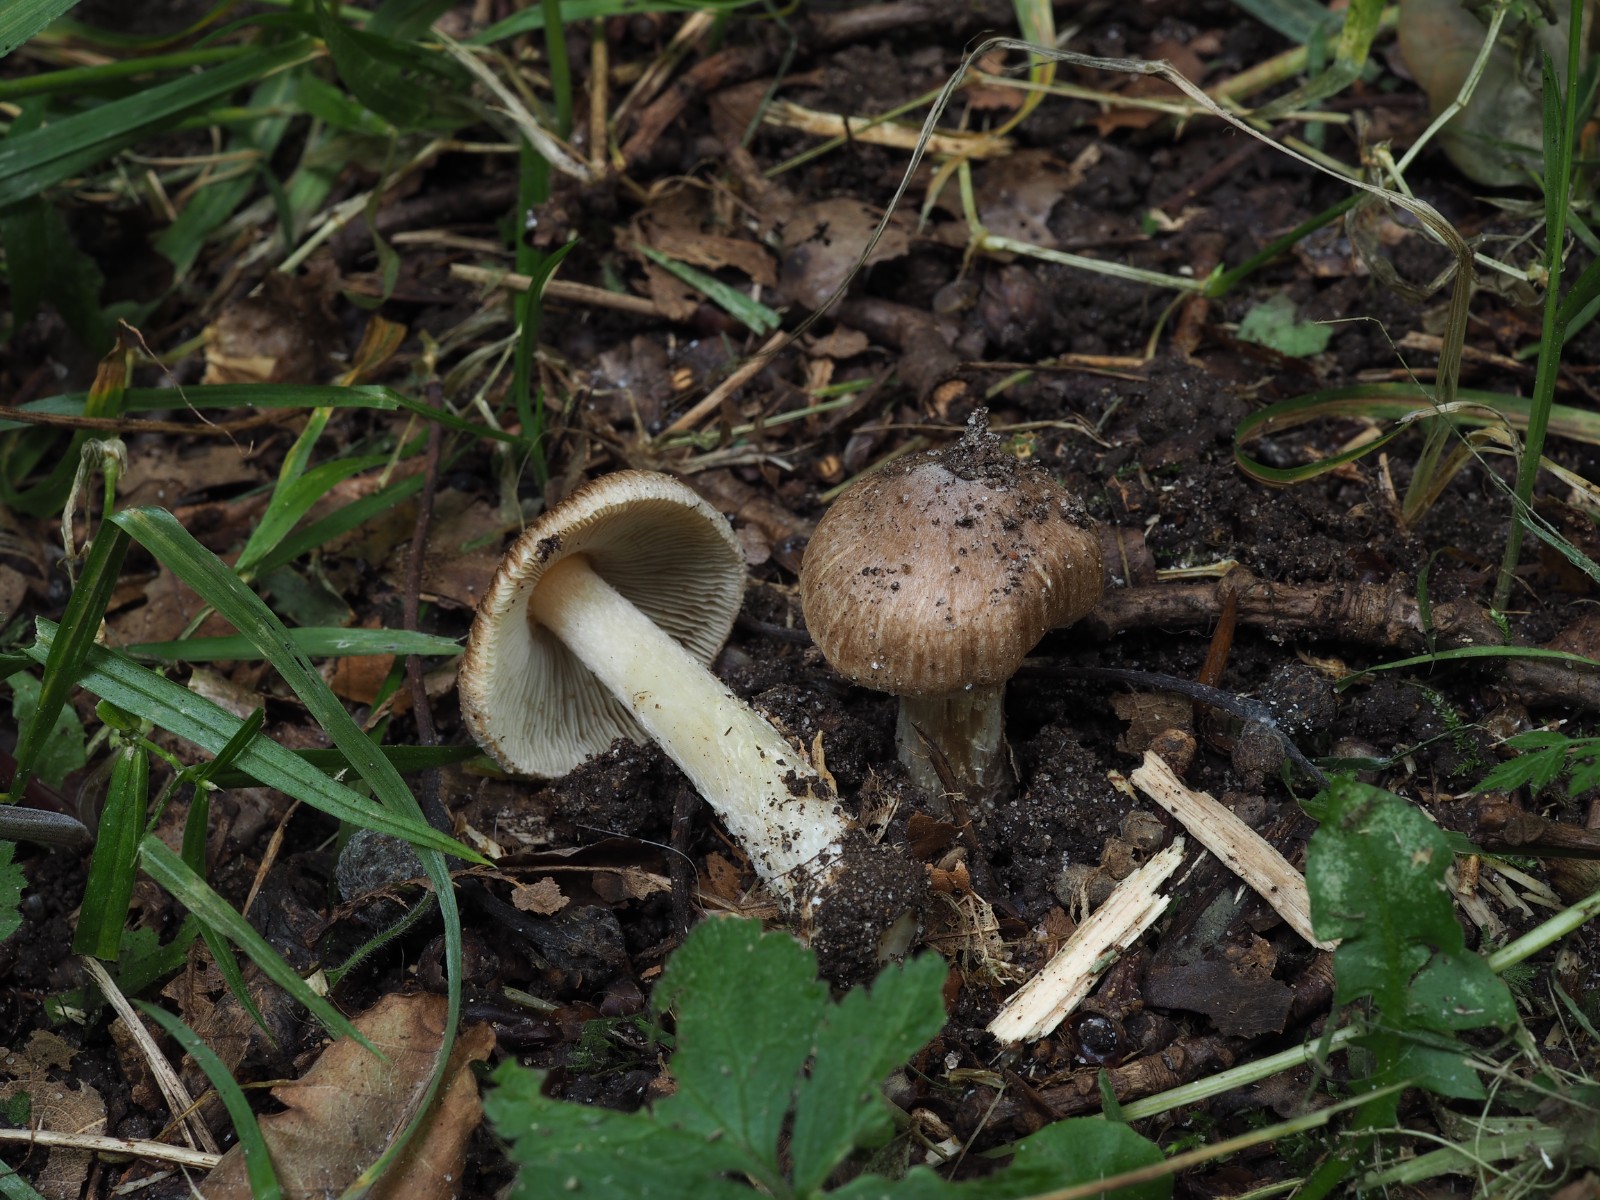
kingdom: Fungi
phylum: Basidiomycota
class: Agaricomycetes
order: Agaricales
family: Inocybaceae
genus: Inosperma
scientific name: Inosperma
